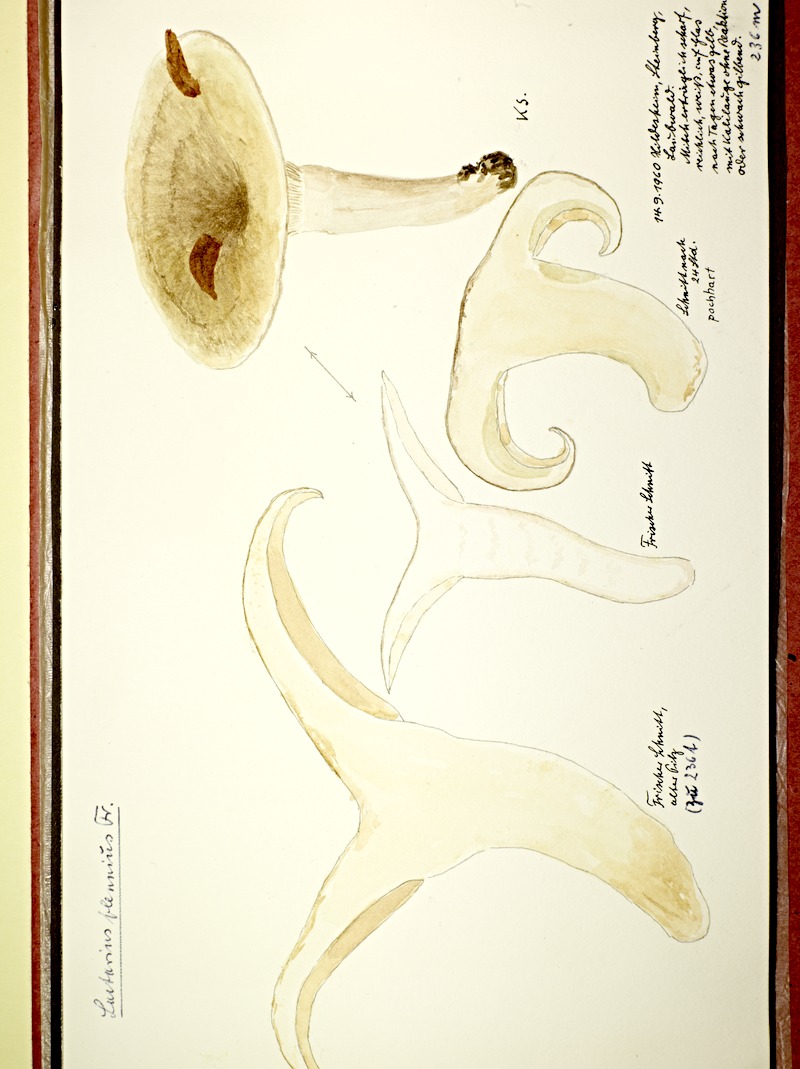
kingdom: Fungi
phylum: Basidiomycota
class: Agaricomycetes
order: Russulales
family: Russulaceae
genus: Lactarius
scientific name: Lactarius blennius
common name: Beech milkcap
